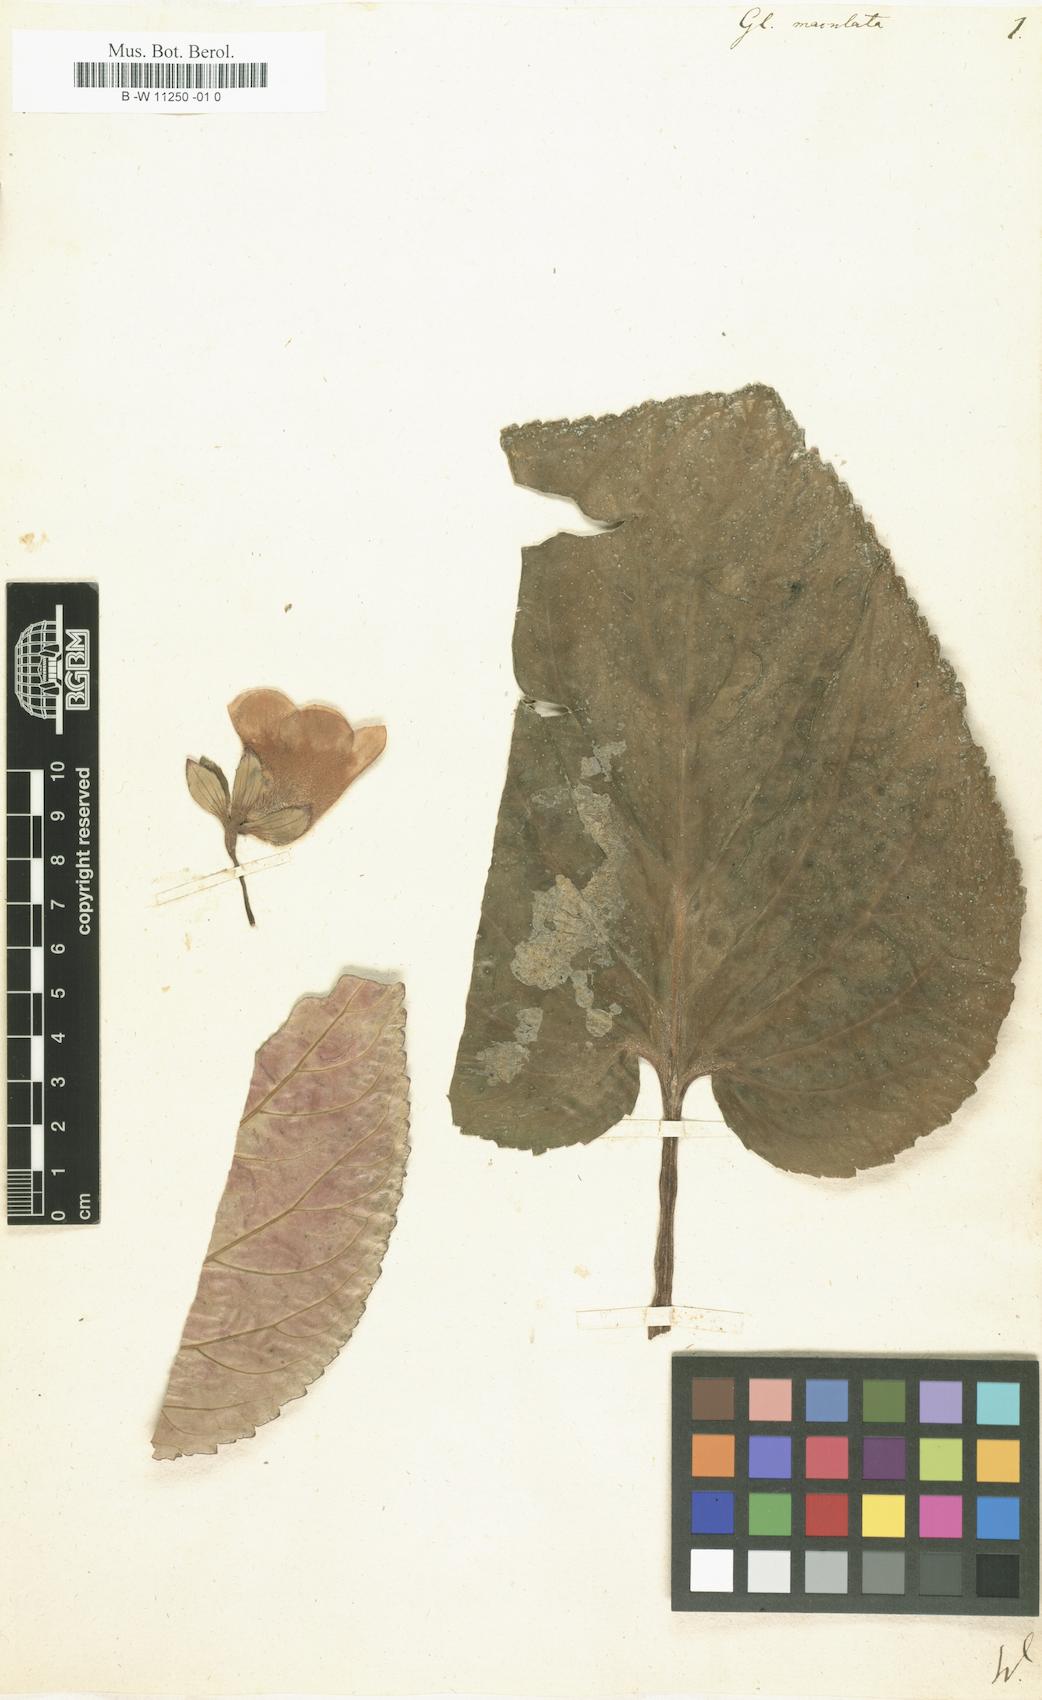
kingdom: Plantae
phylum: Tracheophyta
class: Magnoliopsida
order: Lamiales
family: Gesneriaceae
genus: Gloxinia
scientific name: Gloxinia perennis
